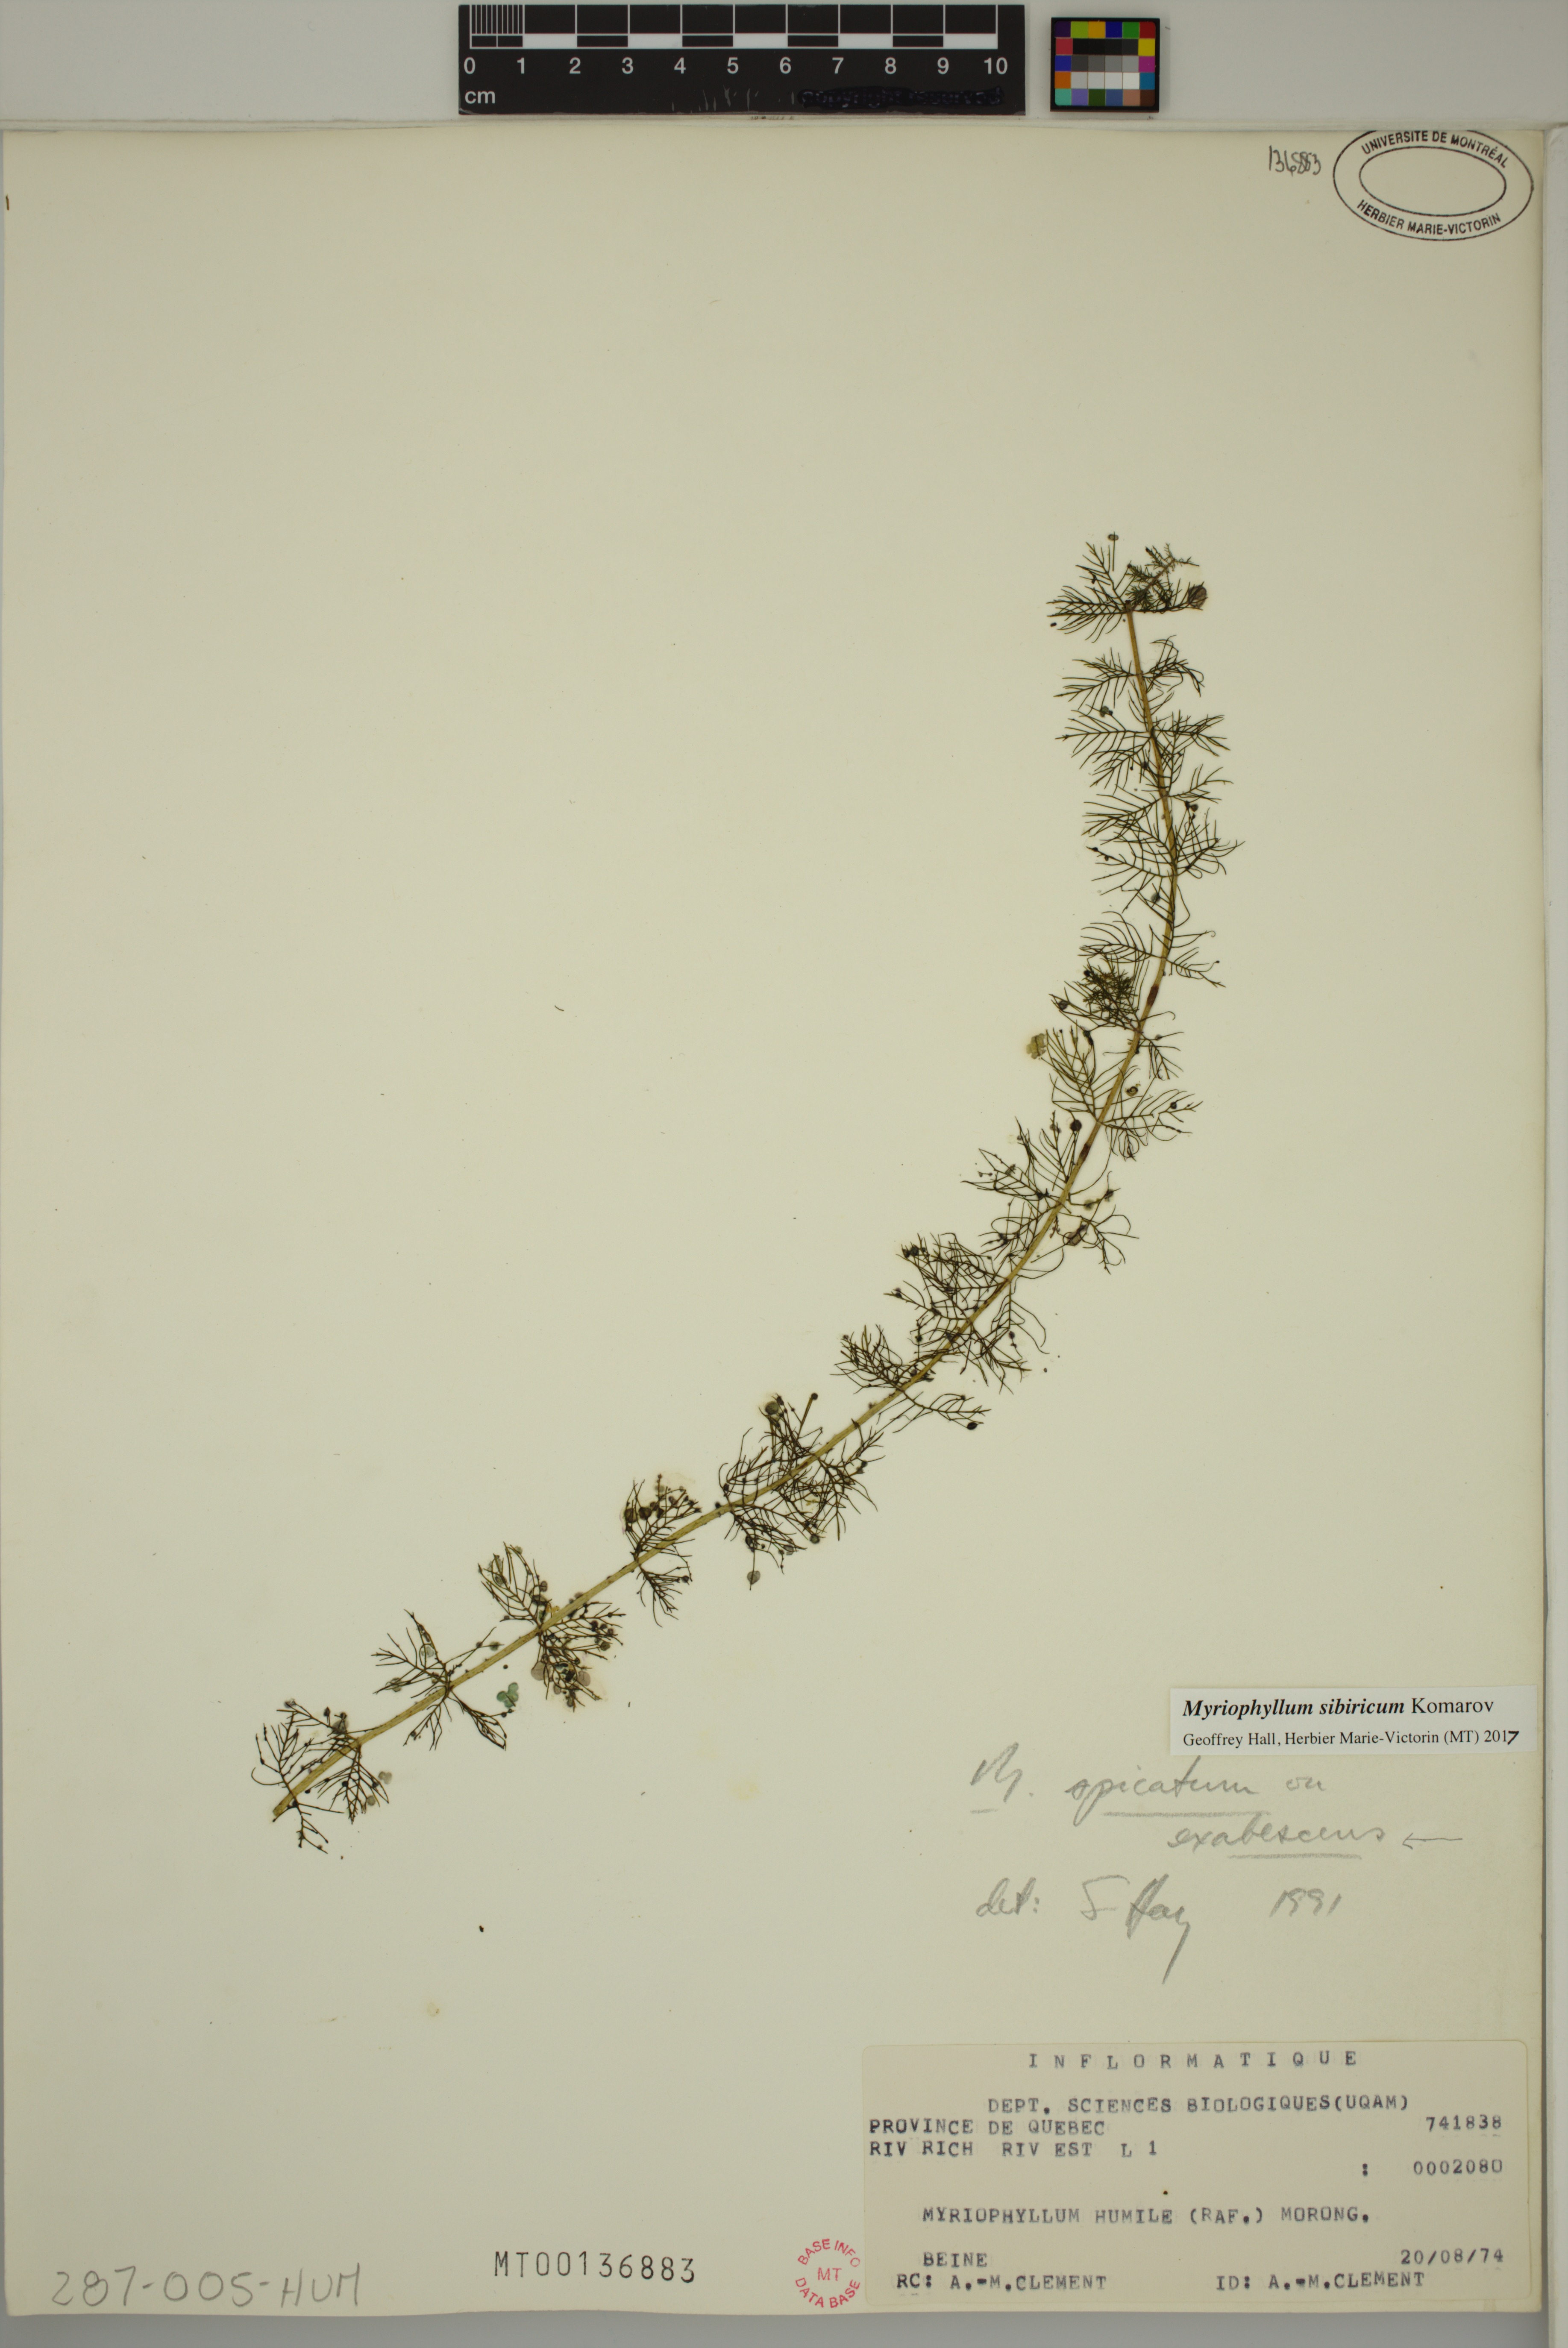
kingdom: Plantae
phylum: Tracheophyta
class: Magnoliopsida
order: Saxifragales
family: Haloragaceae
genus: Myriophyllum
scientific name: Myriophyllum sibiricum
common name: Siberian water-milfoil
